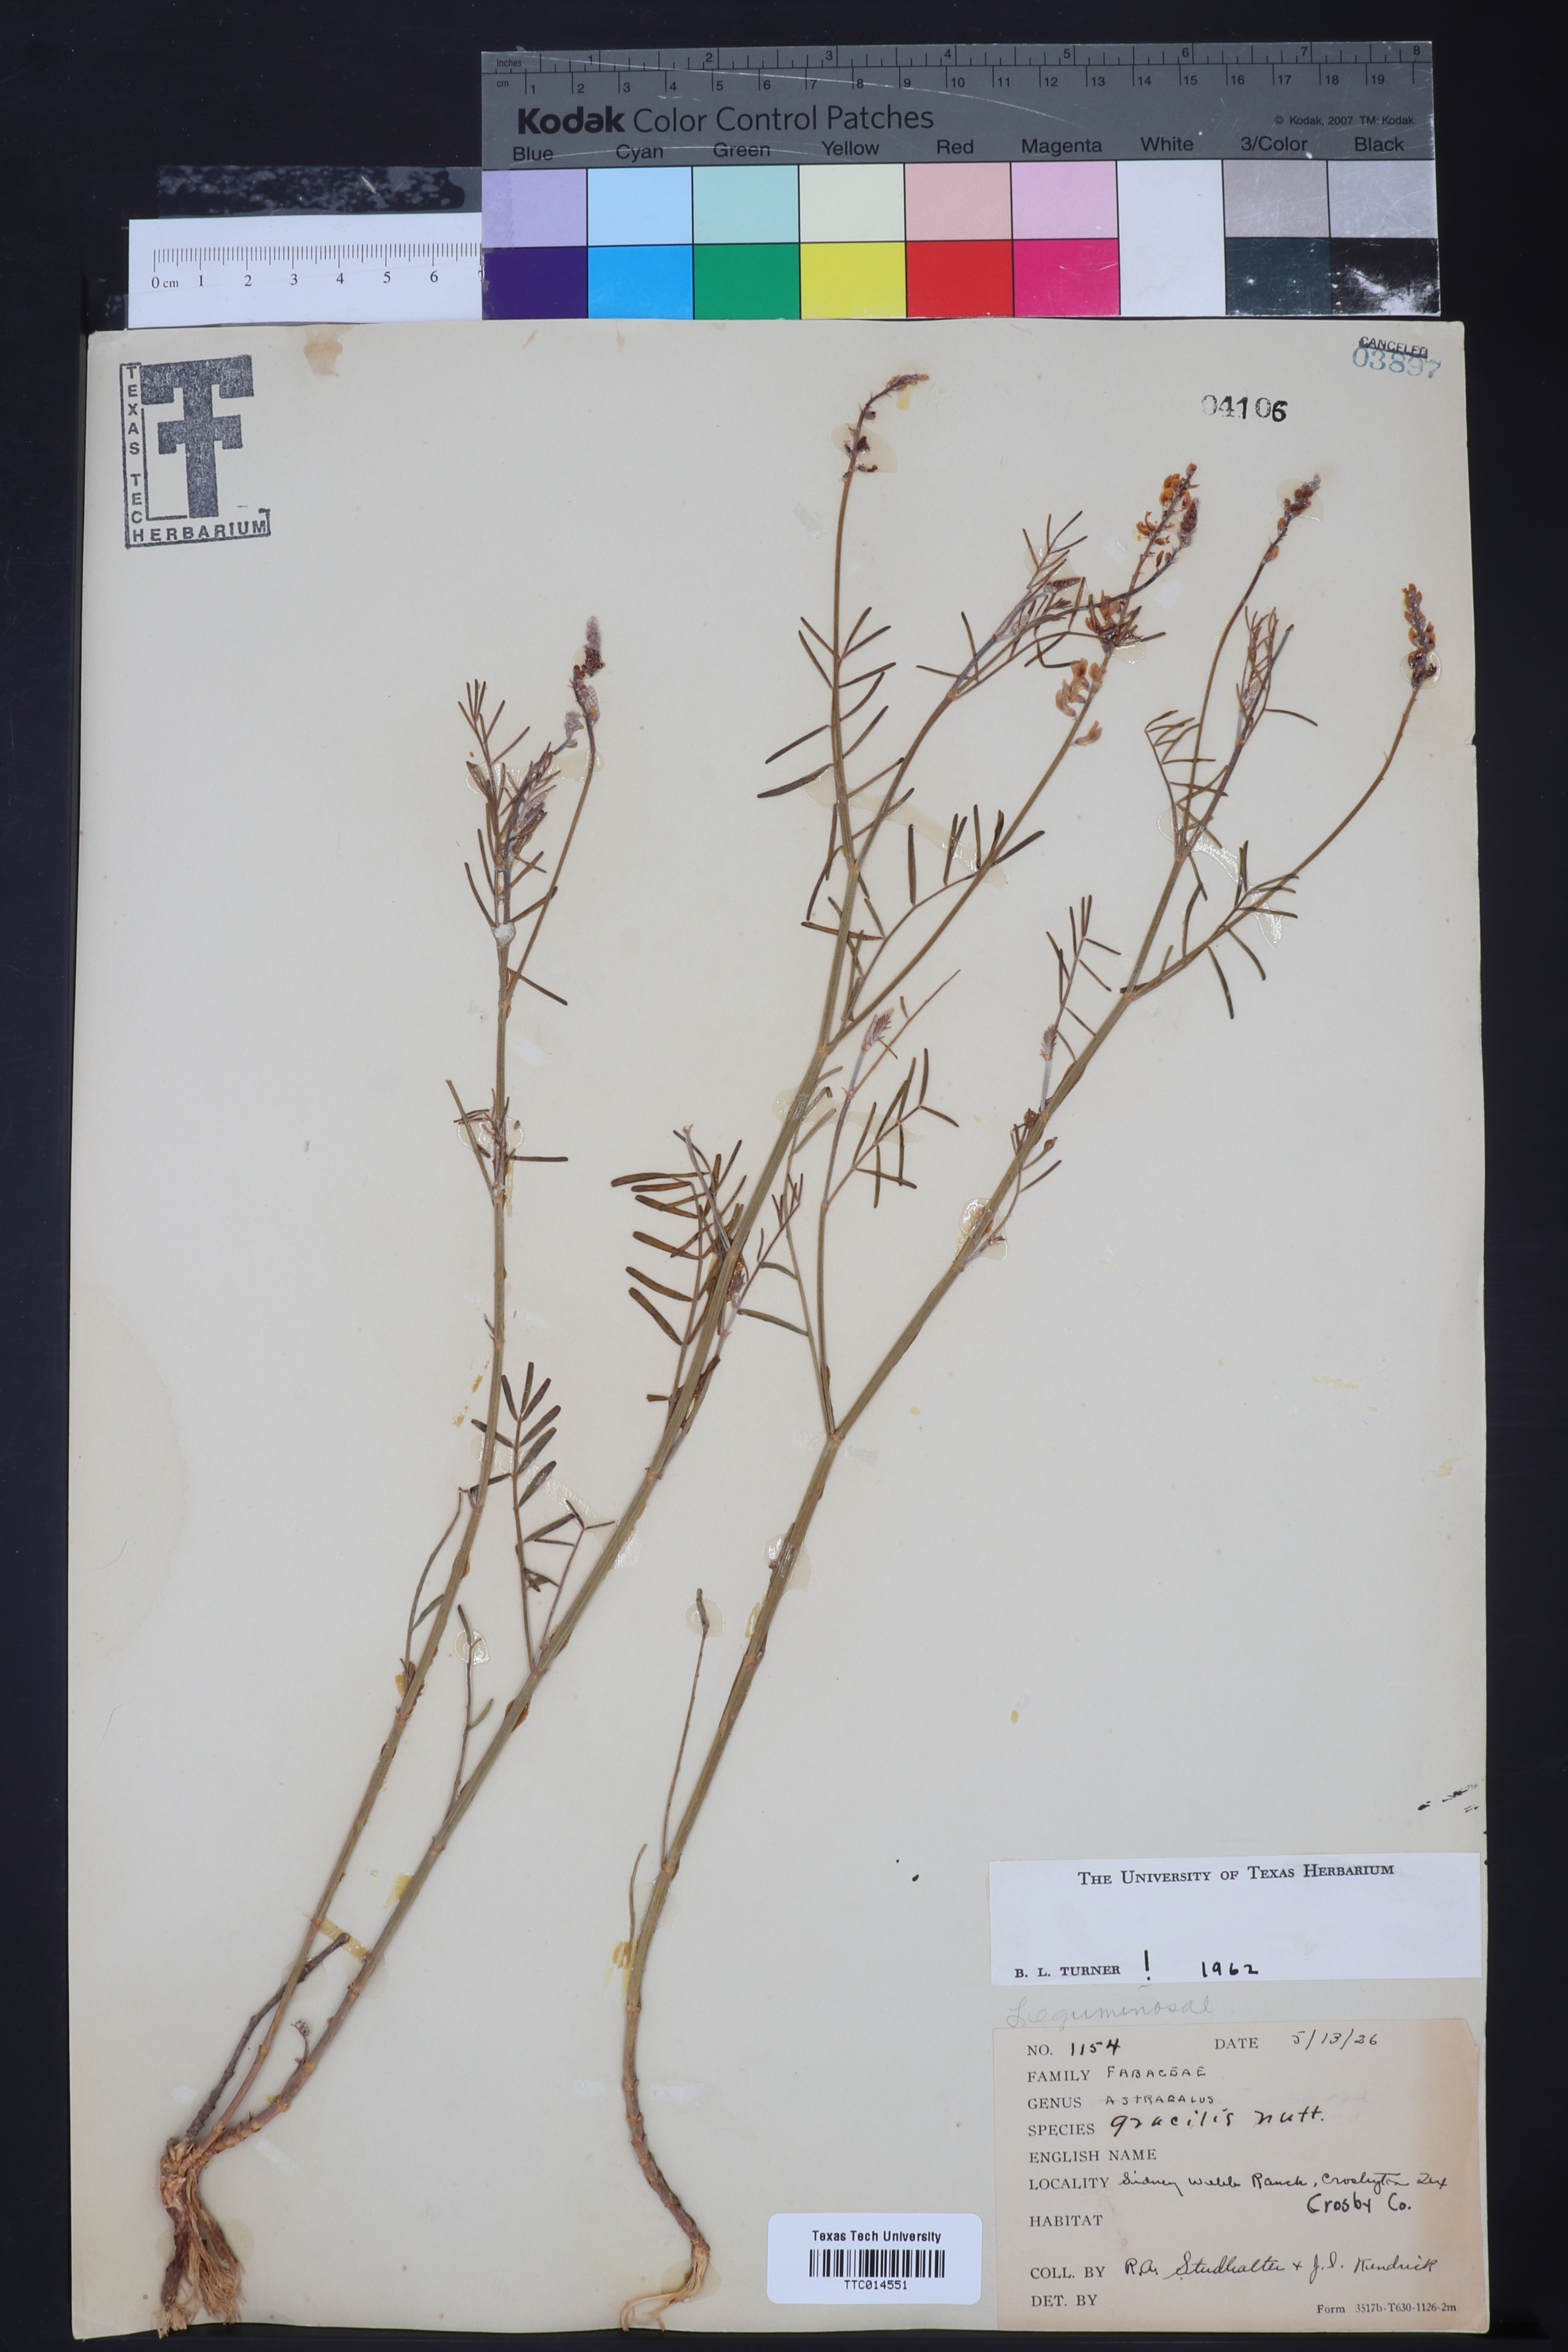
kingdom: Plantae
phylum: Tracheophyta
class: Magnoliopsida
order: Fabales
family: Fabaceae
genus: Astragalus
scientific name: Astragalus gracilis
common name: Slender milk-vetch
